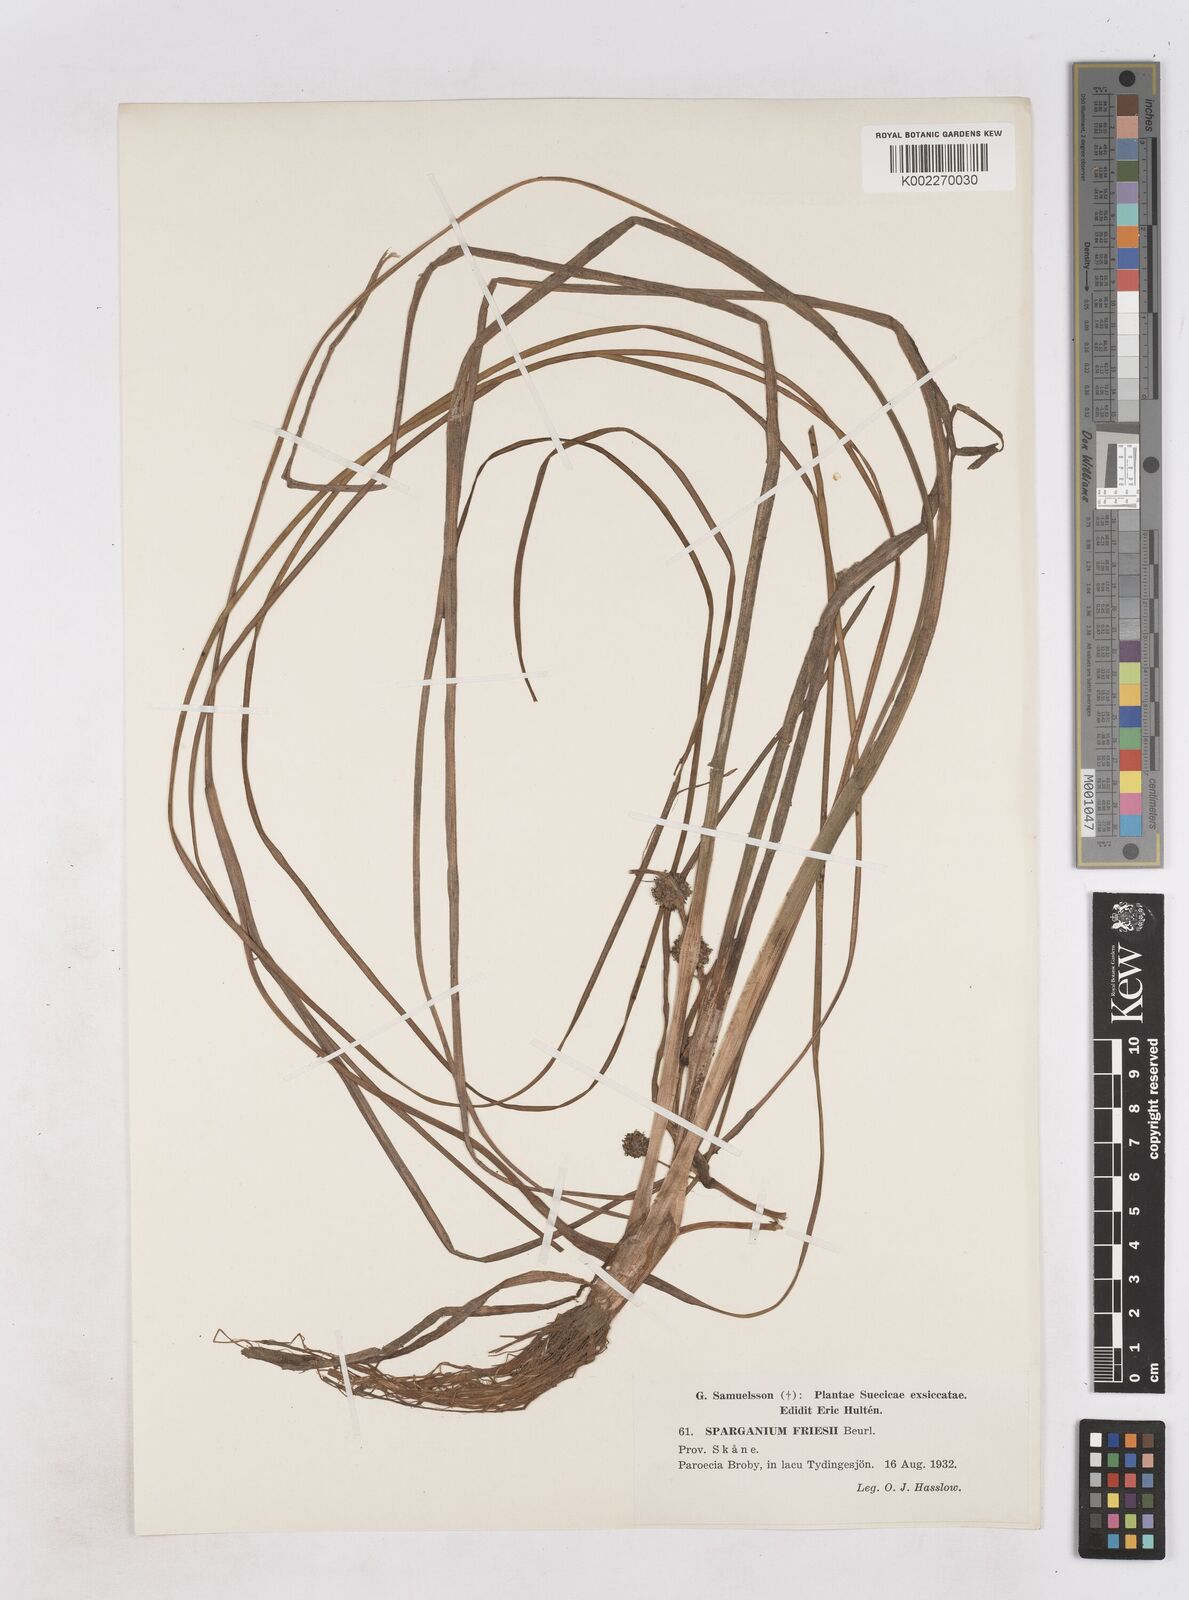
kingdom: Plantae
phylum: Tracheophyta
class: Liliopsida
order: Poales
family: Typhaceae
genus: Sparganium
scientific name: Sparganium gramineum
